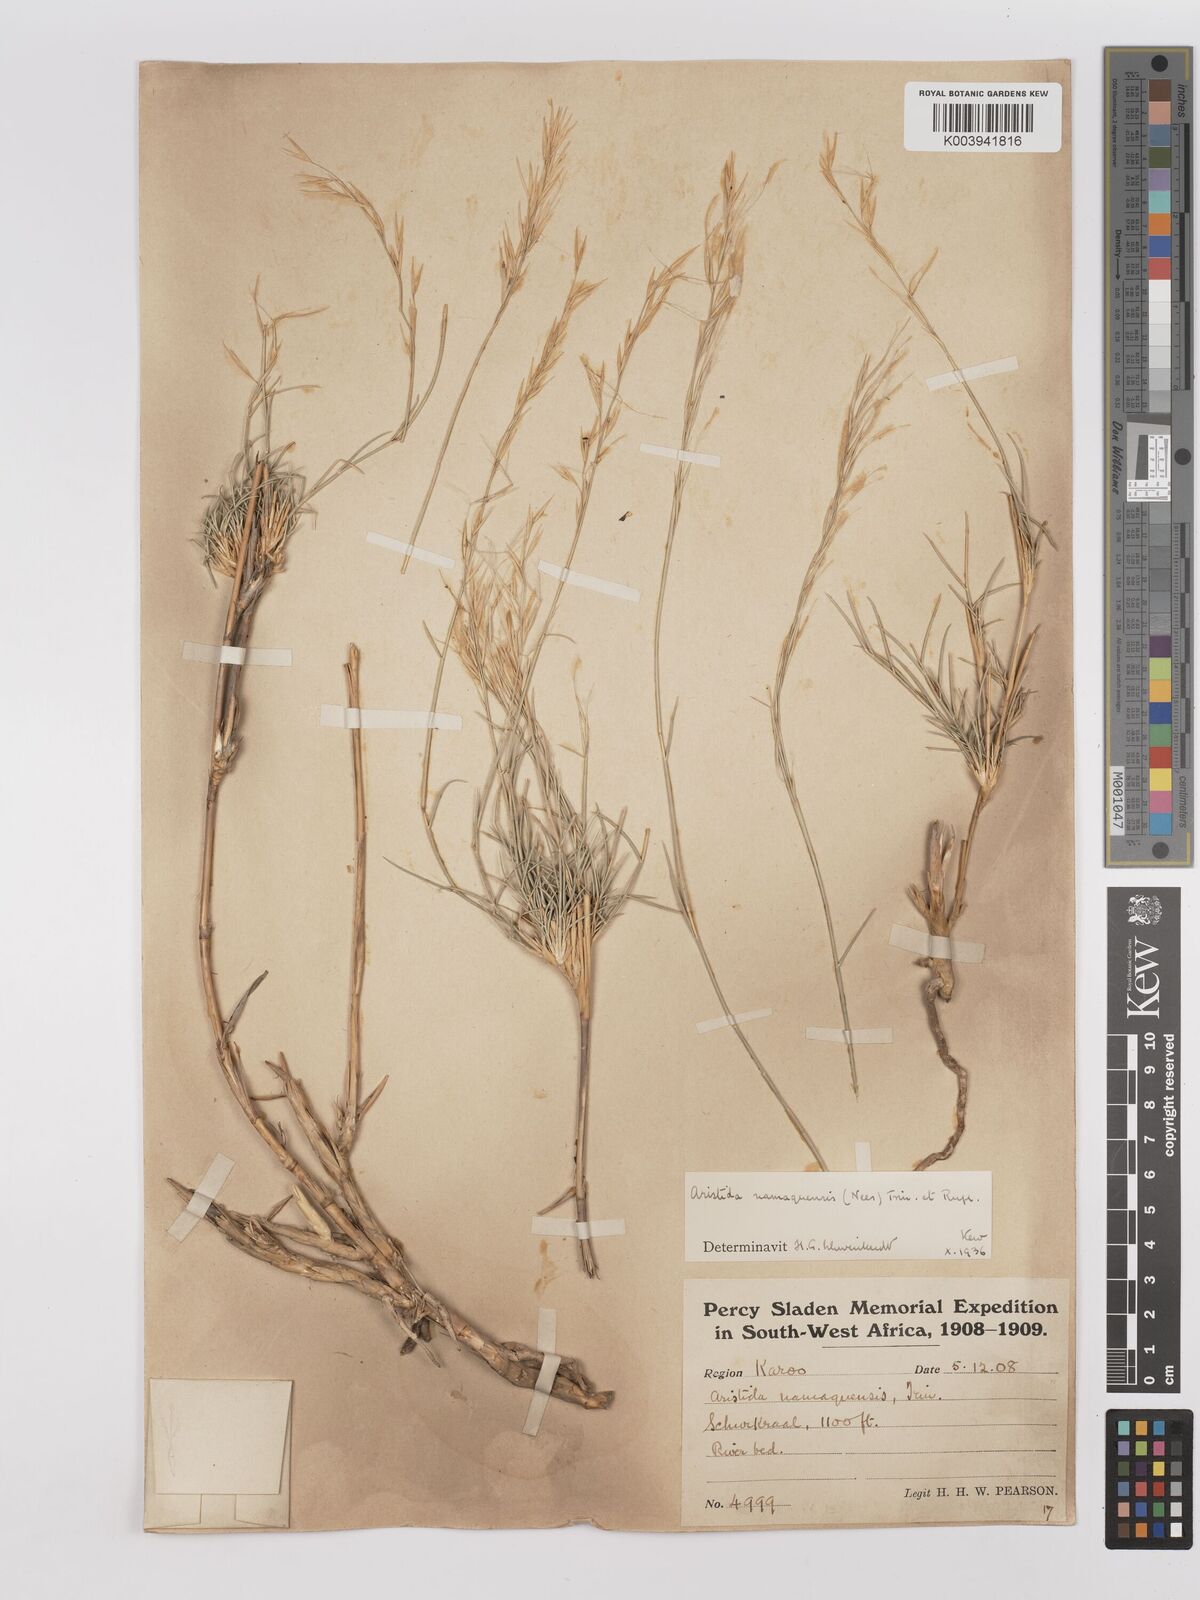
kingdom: Plantae
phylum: Tracheophyta
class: Liliopsida
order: Poales
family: Poaceae
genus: Stipagrostis
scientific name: Stipagrostis namaquensis
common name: River bushman grass
